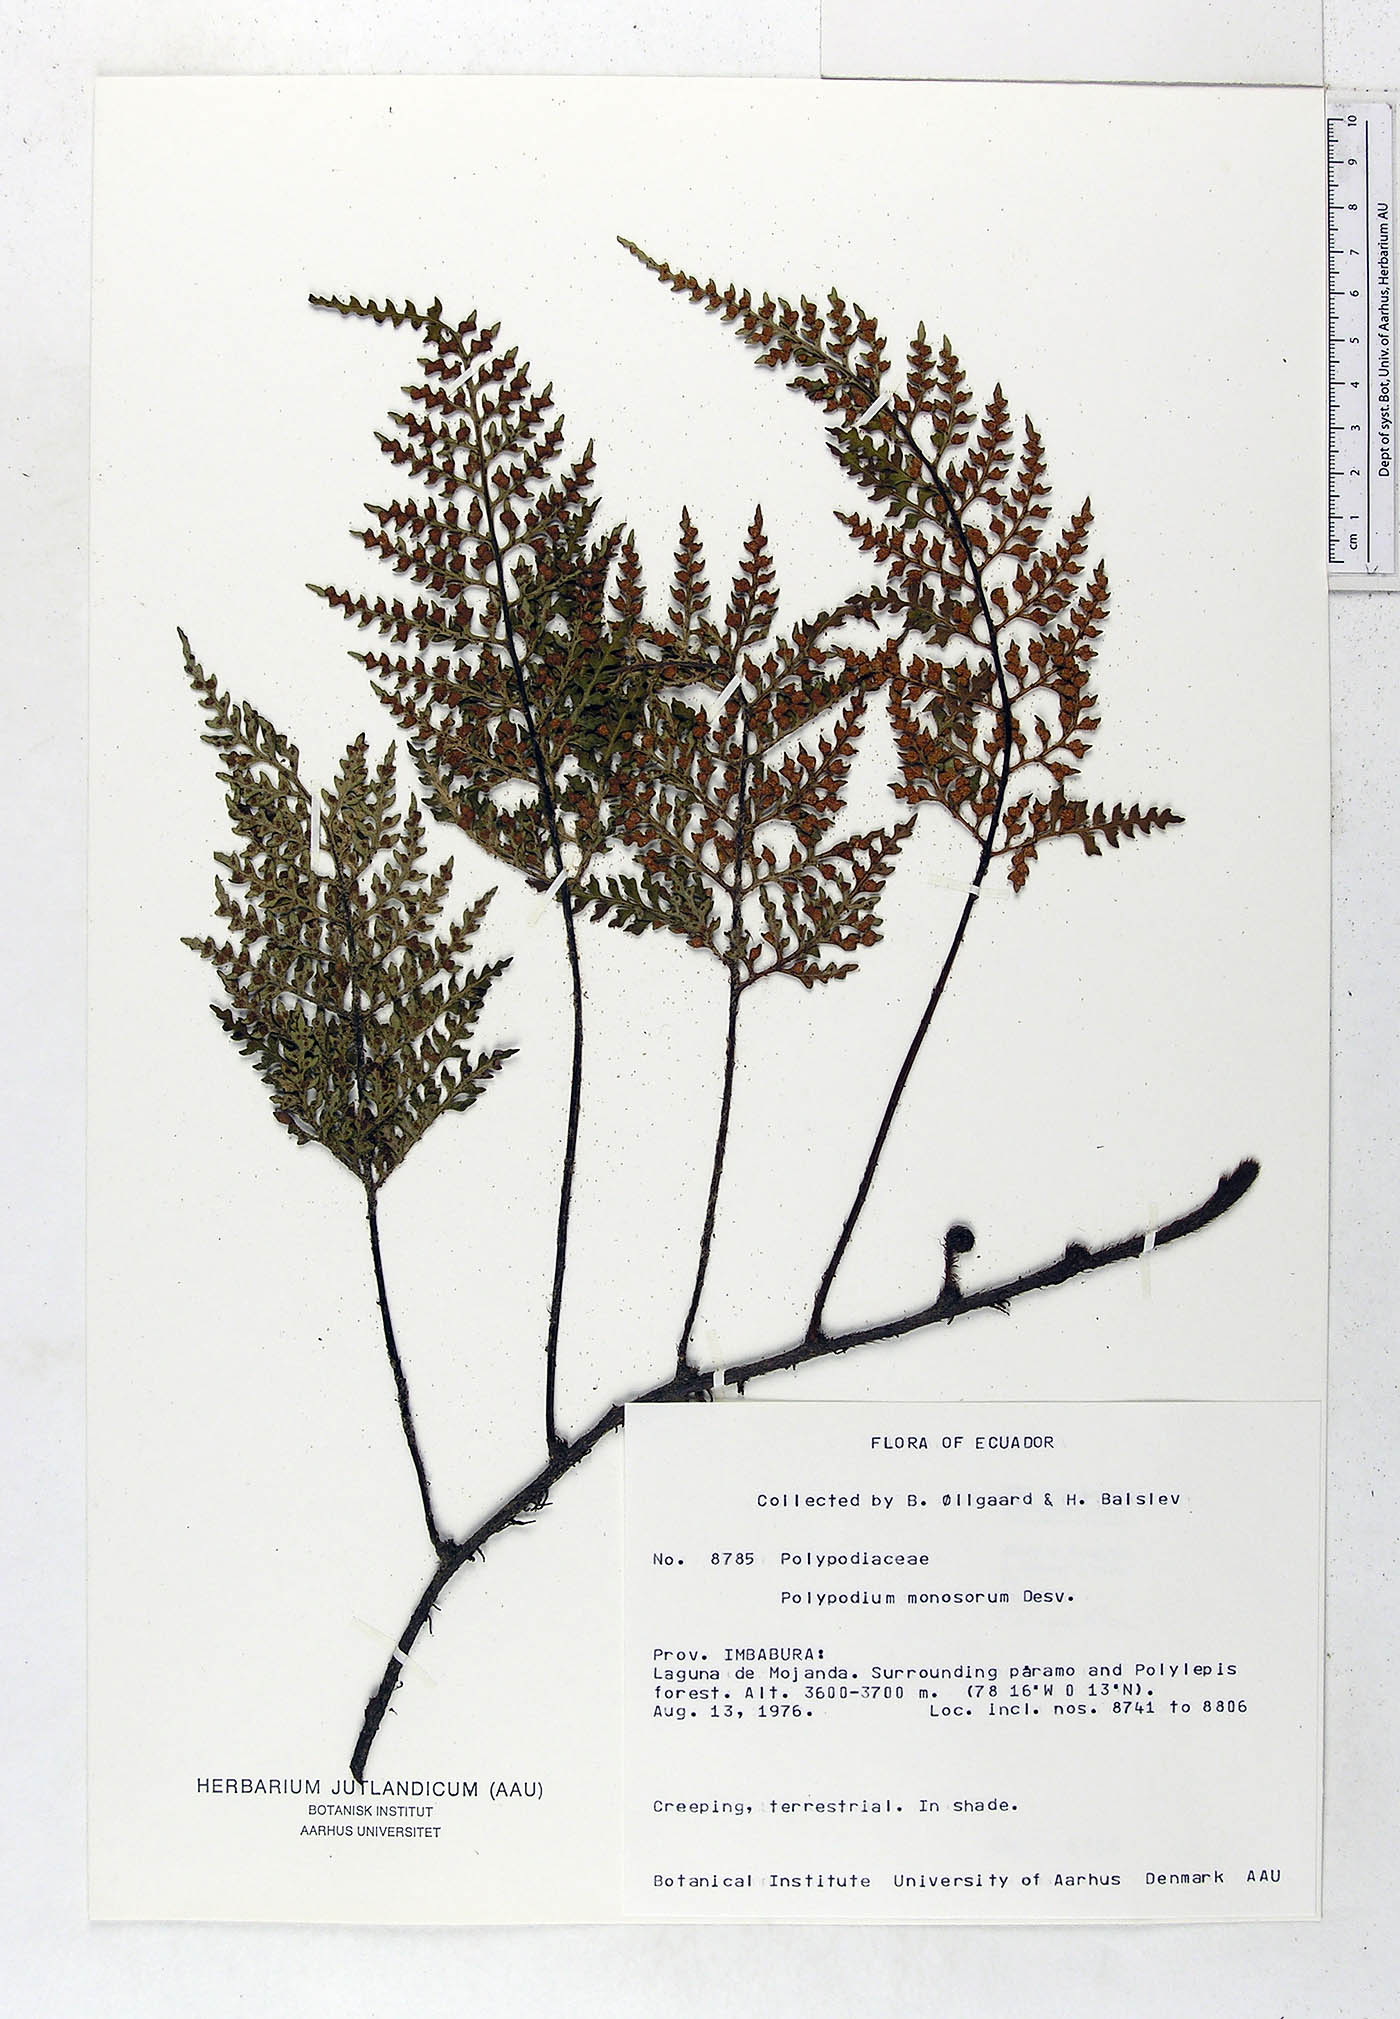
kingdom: Plantae
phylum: Tracheophyta
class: Polypodiopsida
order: Polypodiales
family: Polypodiaceae
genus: Pleopeltis
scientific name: Pleopeltis monosora
